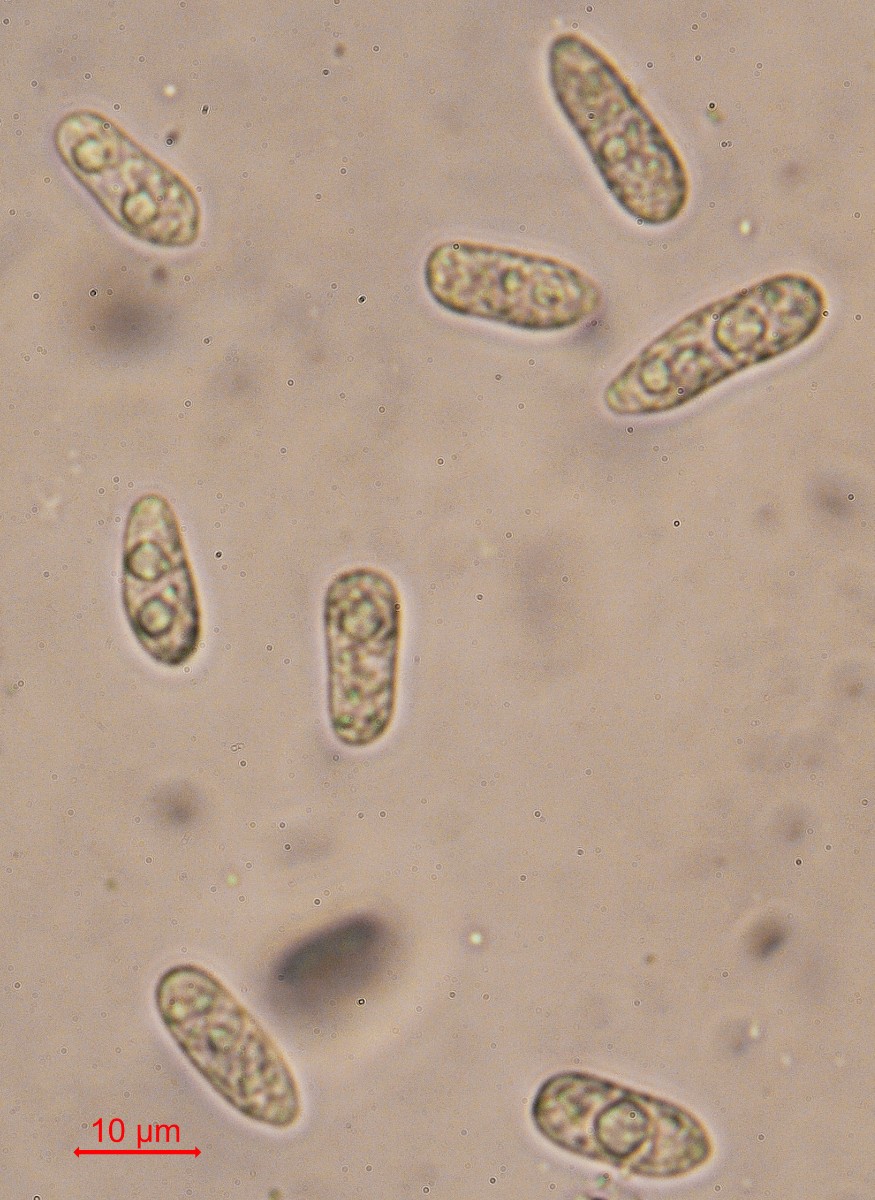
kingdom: Fungi
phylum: Ascomycota
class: Leotiomycetes
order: Helotiales
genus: Cryptocline
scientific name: Cryptocline phacidiella
